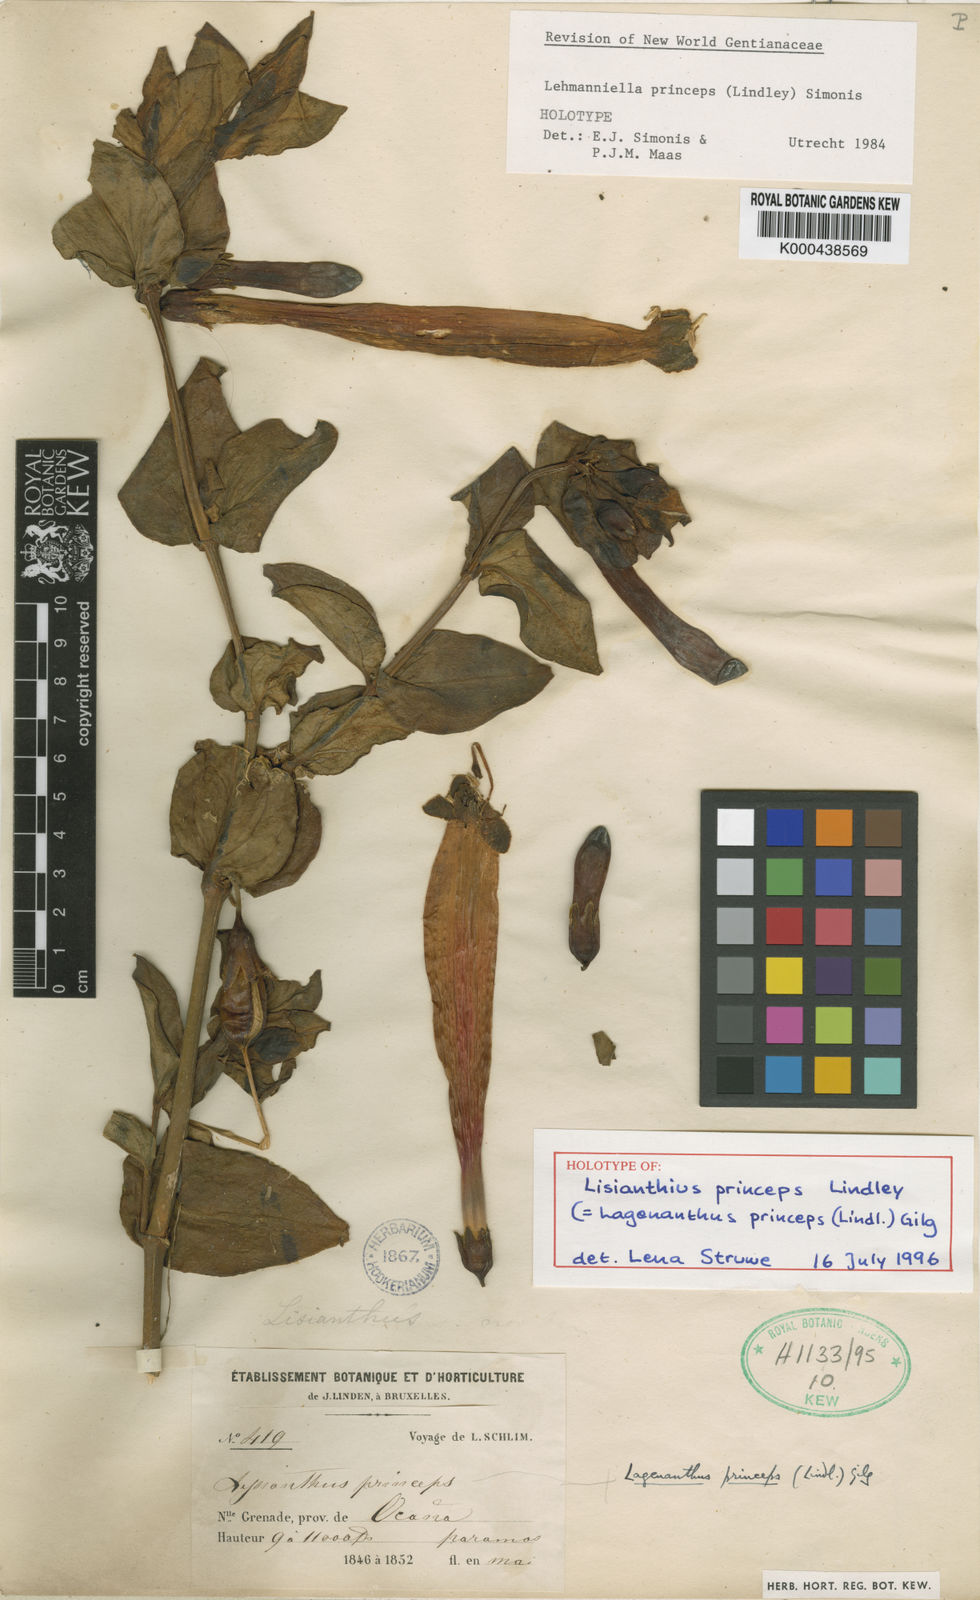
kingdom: Plantae
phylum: Tracheophyta
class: Magnoliopsida
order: Gentianales
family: Gentianaceae
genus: Lehmanniella
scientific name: Lehmanniella
